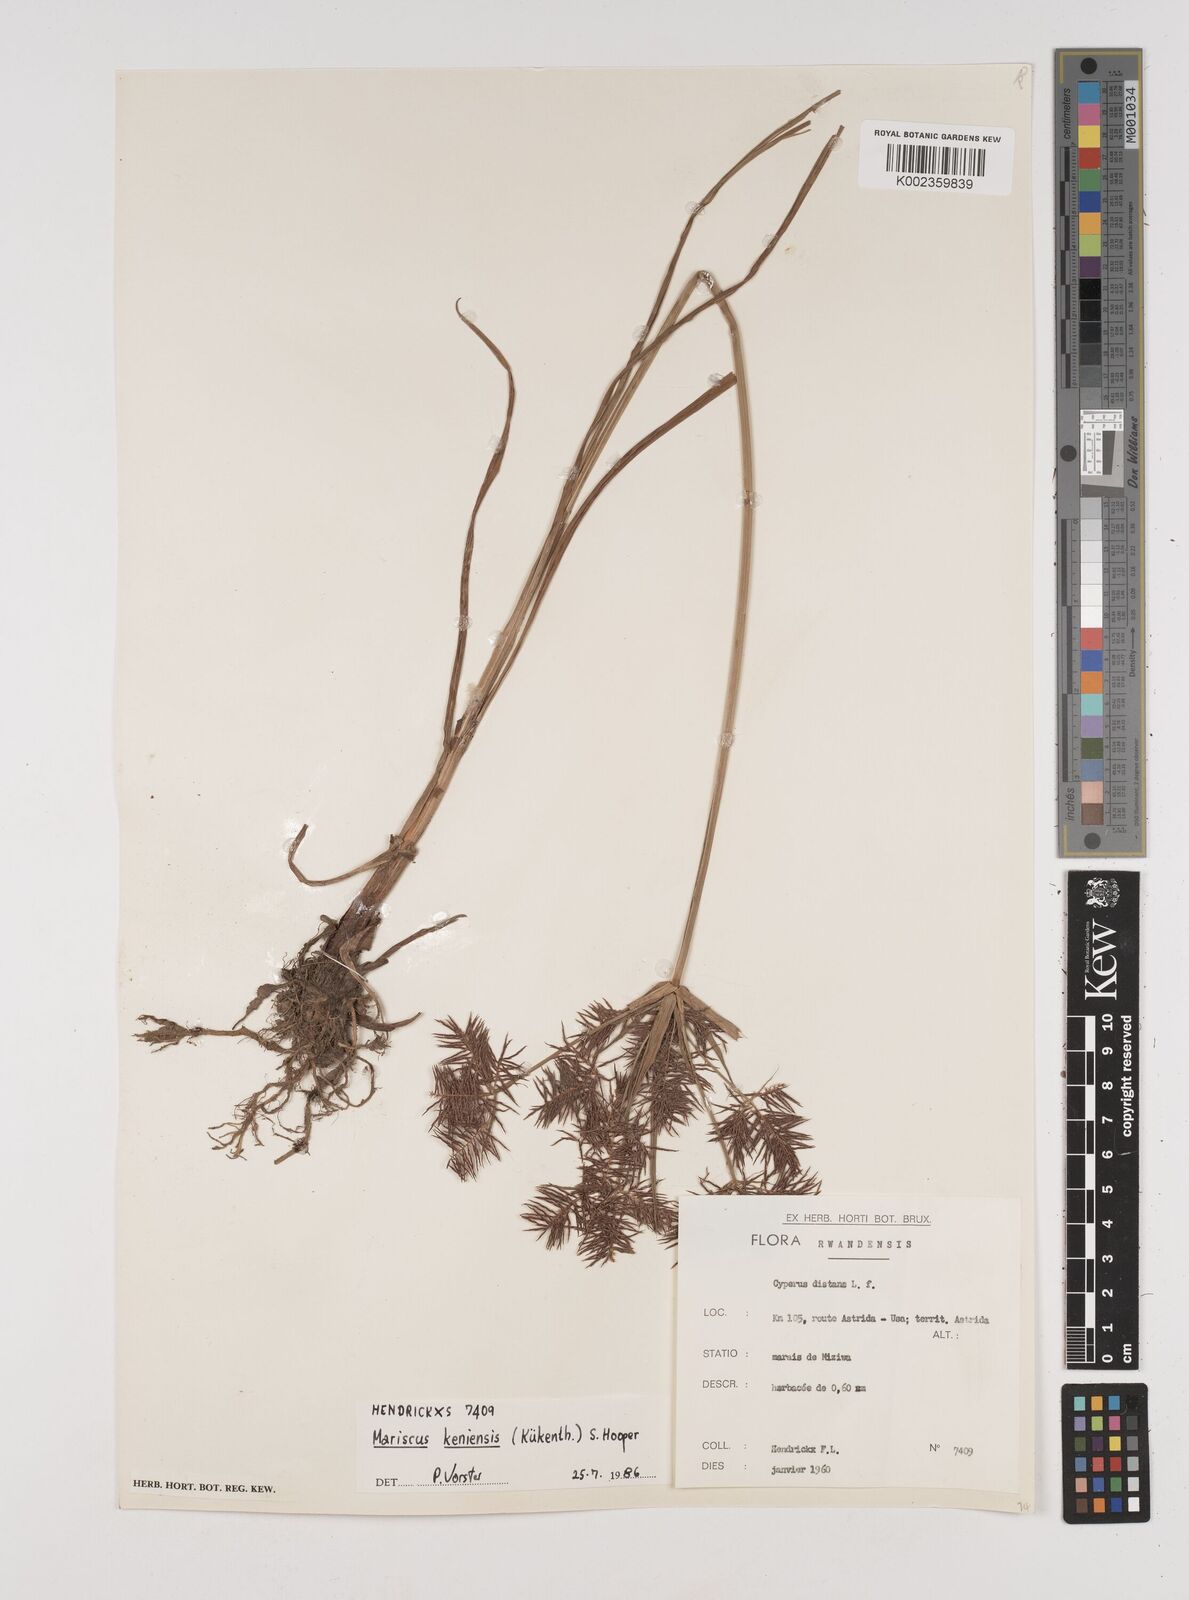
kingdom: Plantae
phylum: Tracheophyta
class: Liliopsida
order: Poales
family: Cyperaceae
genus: Cyperus
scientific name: Cyperus distans
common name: Slender cyperus
